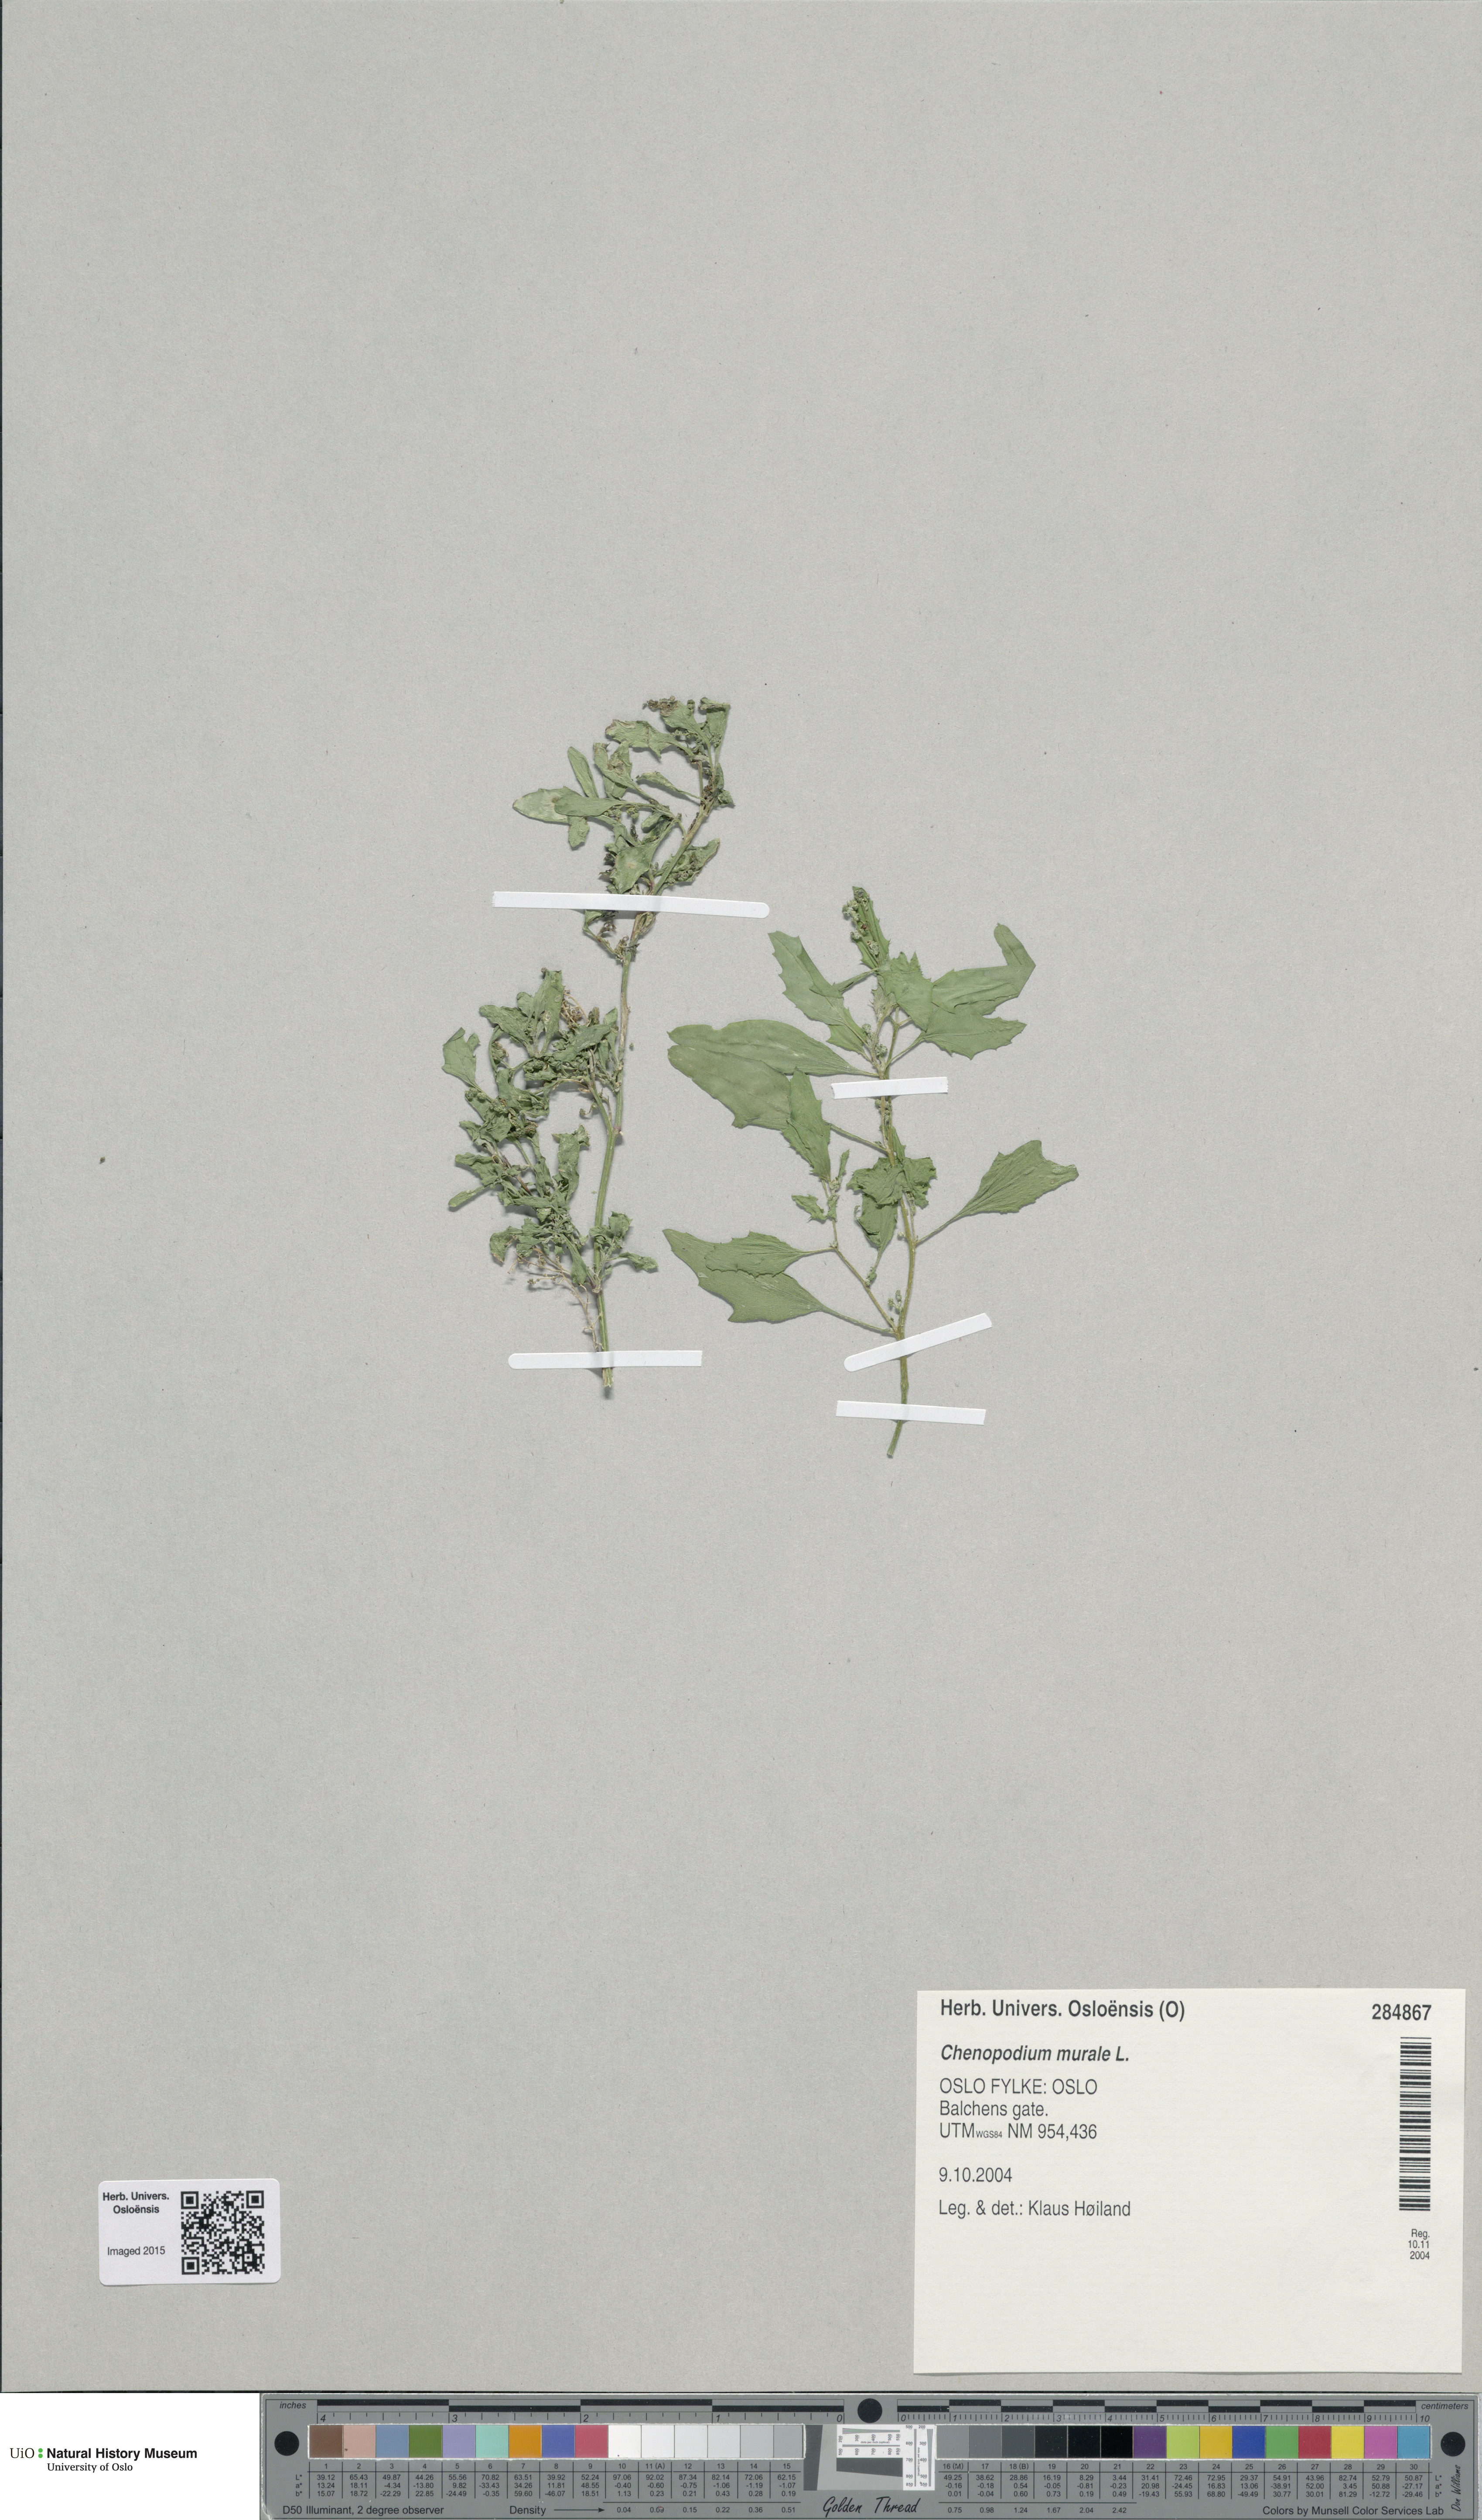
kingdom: Plantae
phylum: Tracheophyta
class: Magnoliopsida
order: Caryophyllales
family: Amaranthaceae
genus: Chenopodiastrum
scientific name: Chenopodiastrum murale
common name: Sowbane
